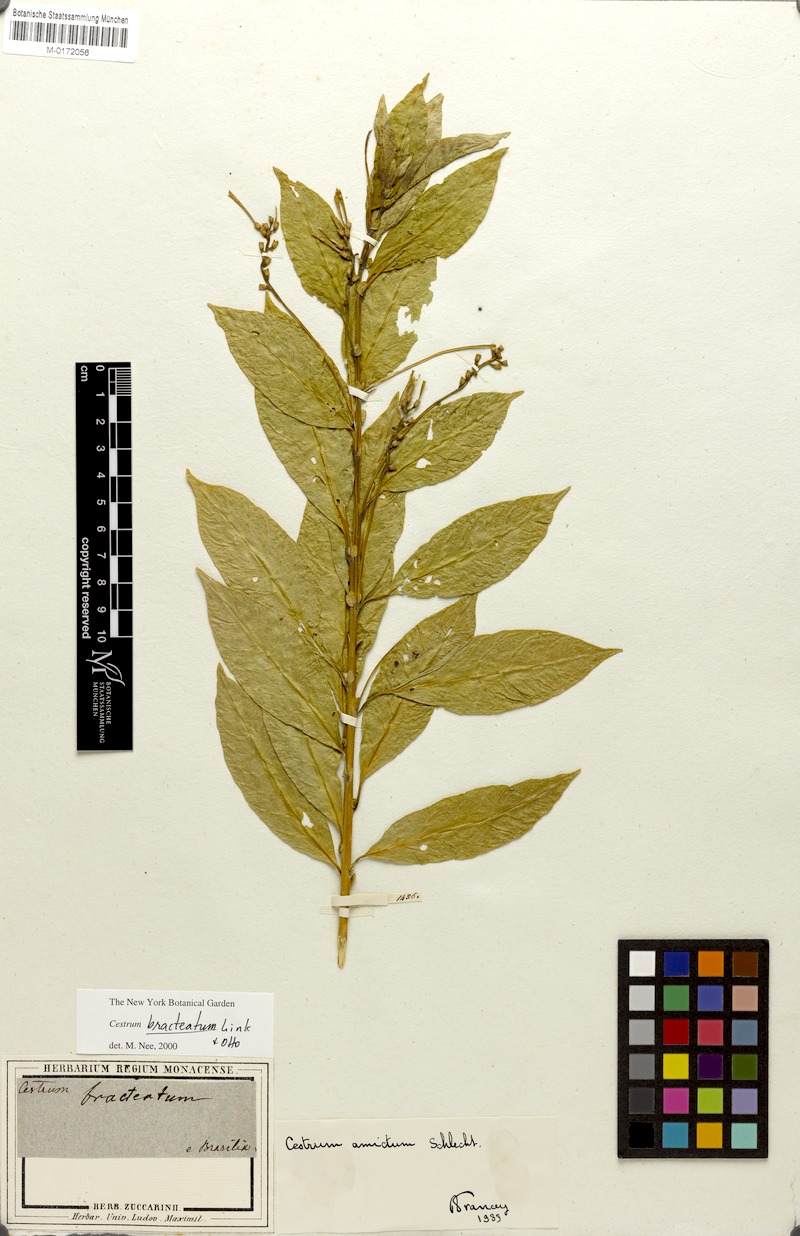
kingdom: Plantae
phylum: Tracheophyta
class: Magnoliopsida
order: Solanales
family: Solanaceae
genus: Cestrum
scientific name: Cestrum bracteatum
